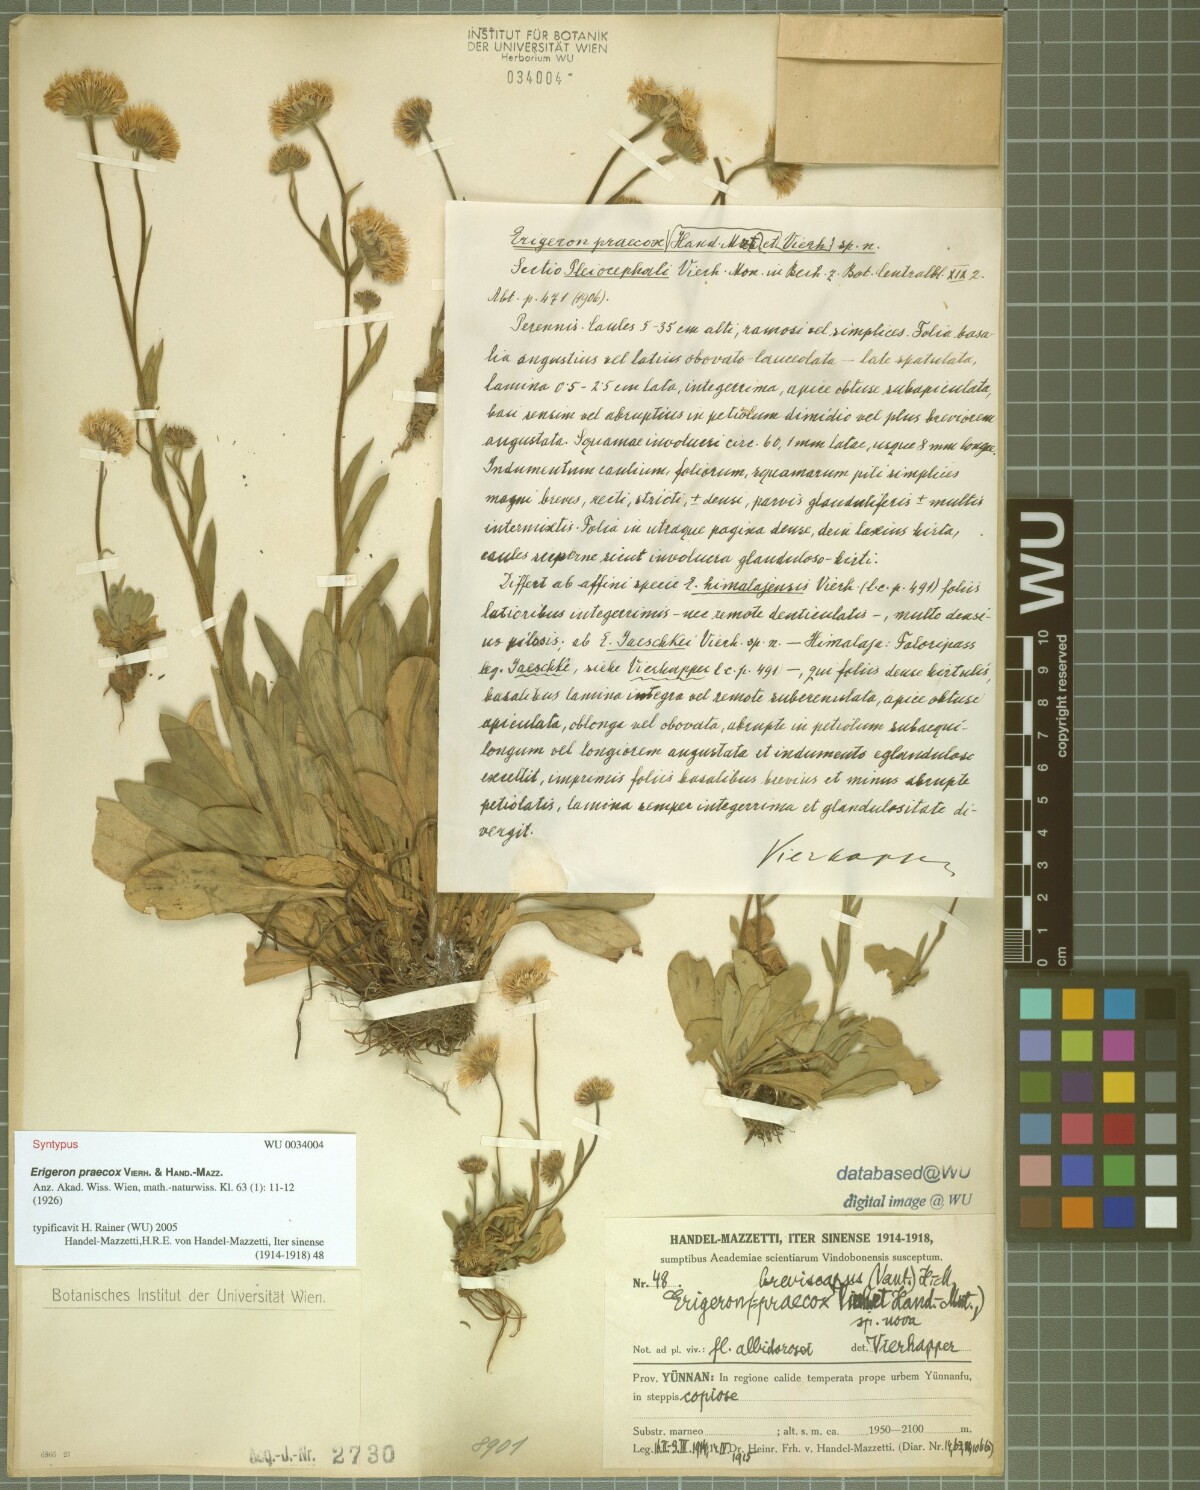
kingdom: Plantae
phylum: Tracheophyta
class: Magnoliopsida
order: Asterales
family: Asteraceae
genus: Erigeron
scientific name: Erigeron breviscapus
